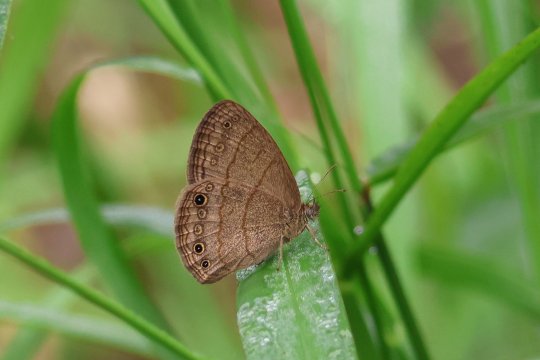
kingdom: Animalia
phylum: Arthropoda
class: Insecta
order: Lepidoptera
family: Nymphalidae
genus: Hermeuptychia
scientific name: Hermeuptychia hermybius
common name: South Texas Satyr
